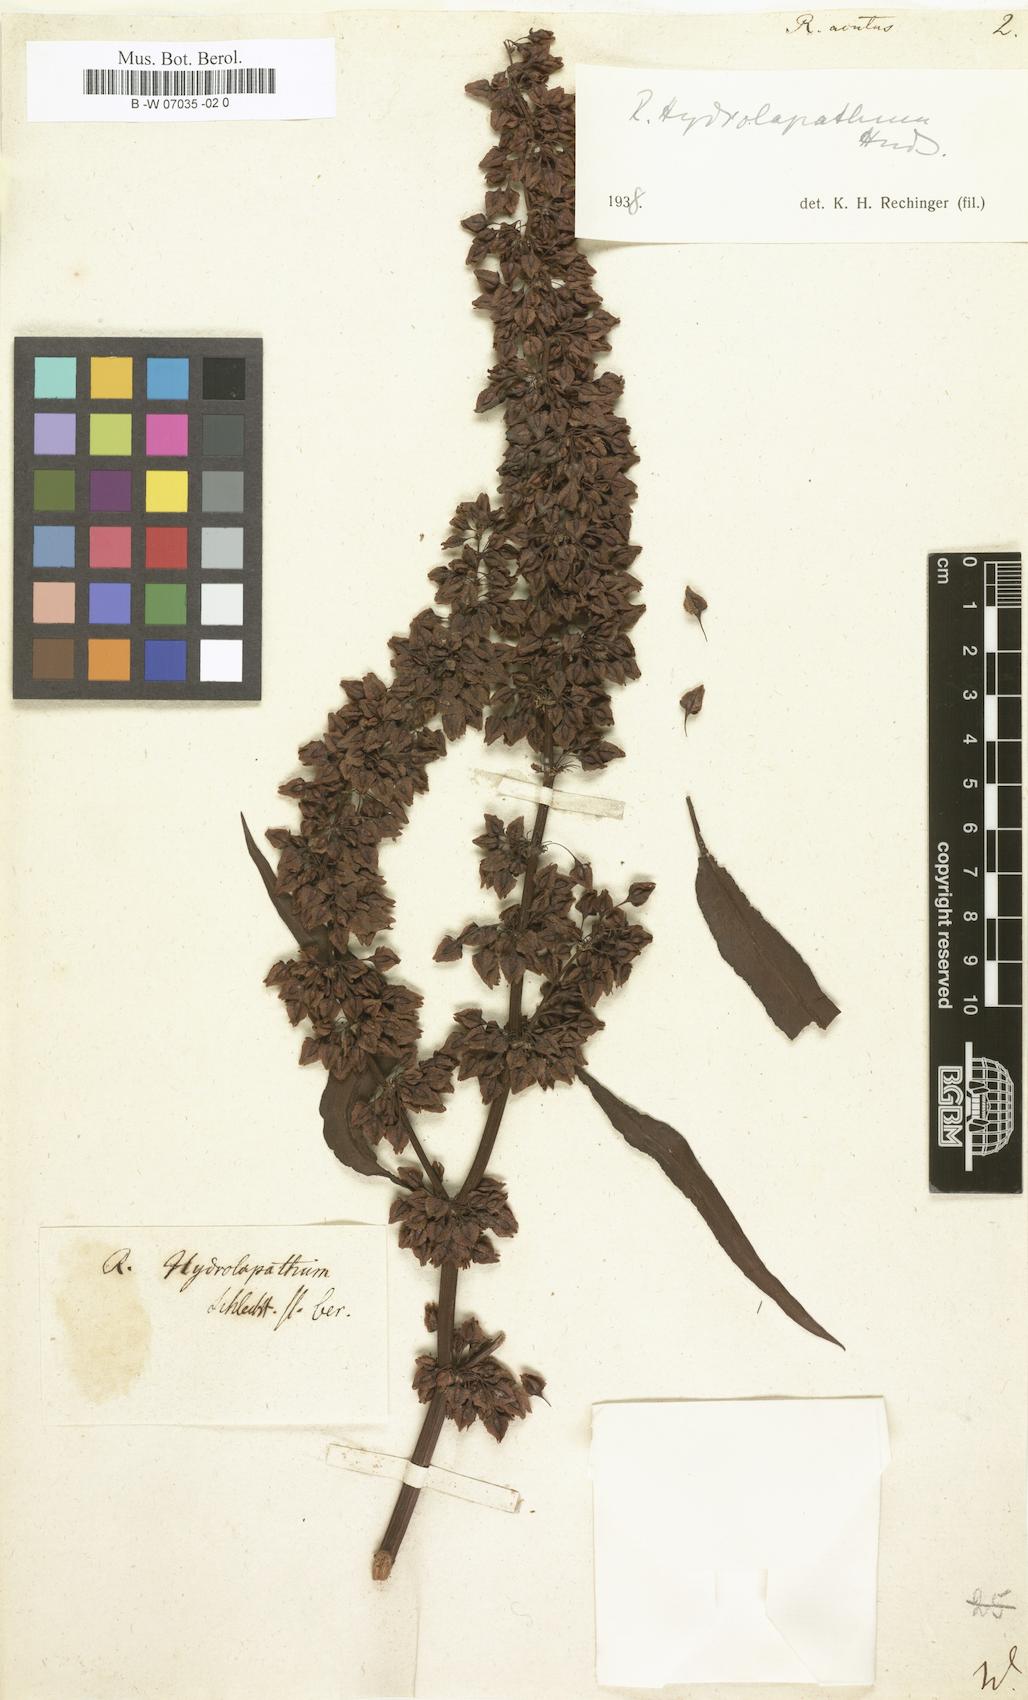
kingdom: Plantae
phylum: Tracheophyta
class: Magnoliopsida
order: Caryophyllales
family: Polygonaceae
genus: Rumex
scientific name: Rumex acutus
